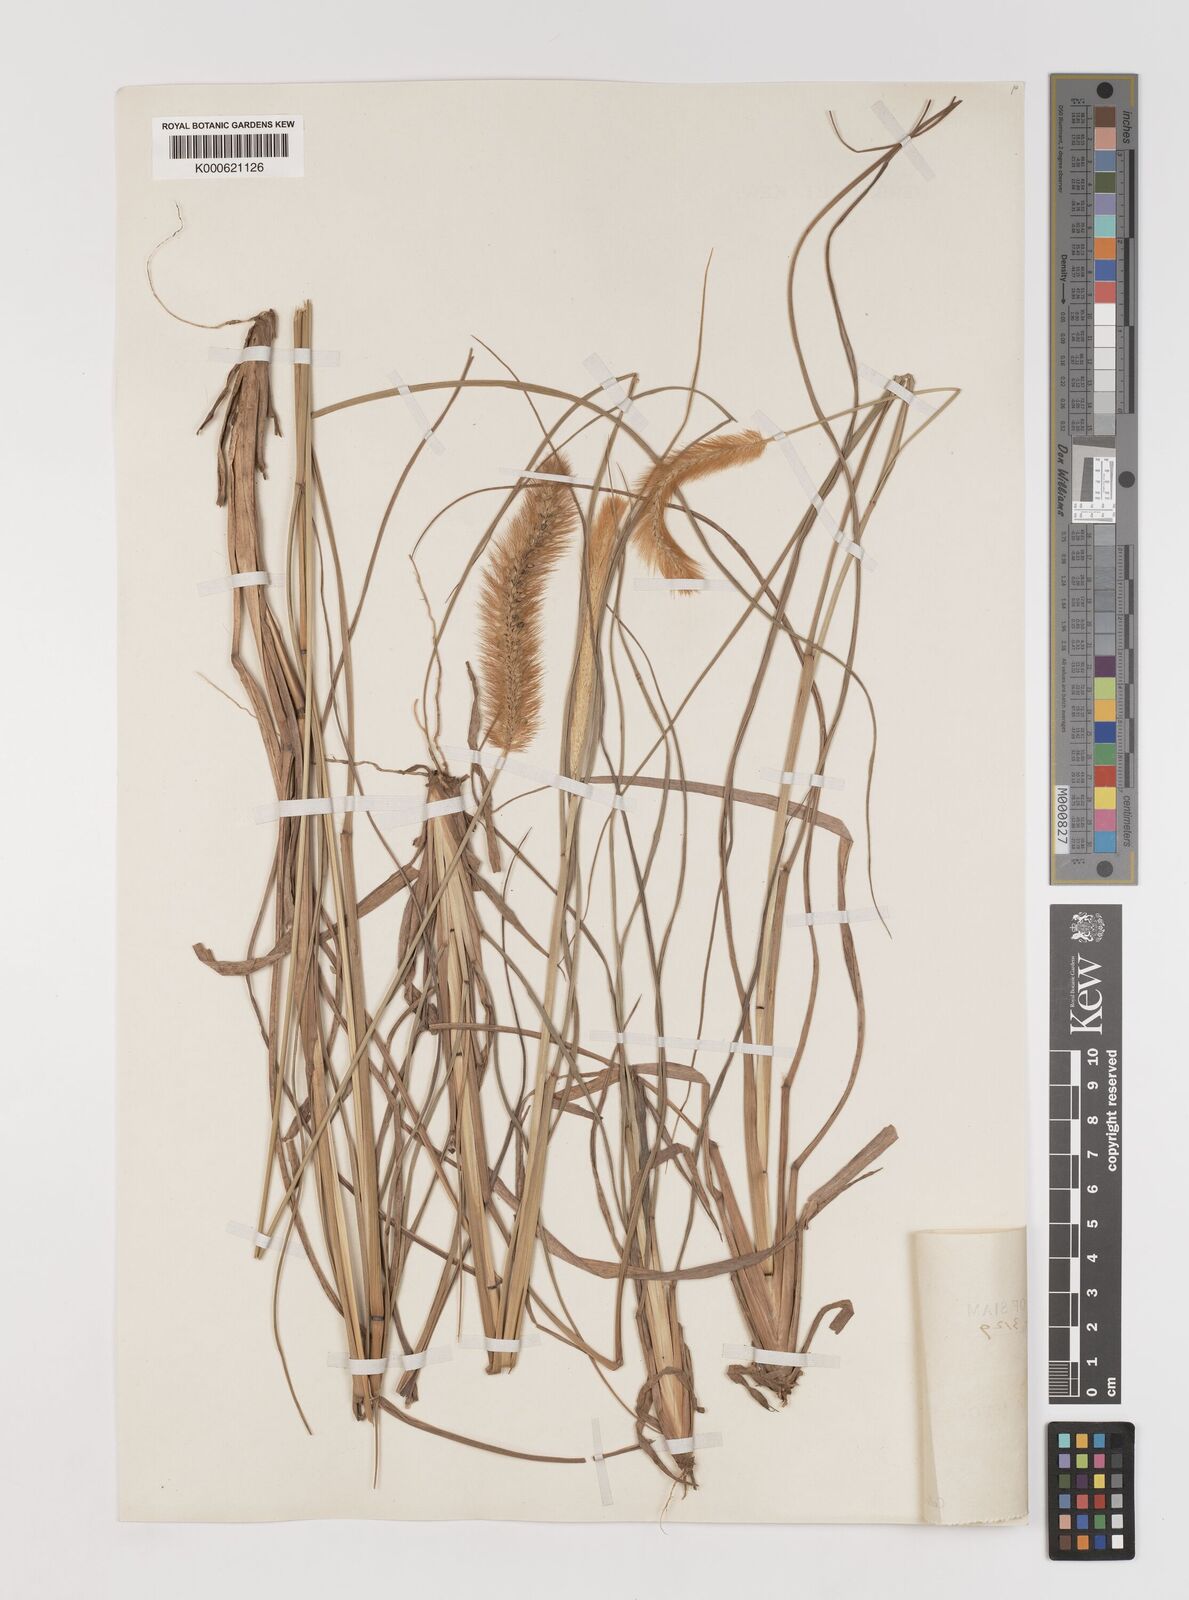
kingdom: Plantae
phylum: Tracheophyta
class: Liliopsida
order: Poales
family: Poaceae
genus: Setaria
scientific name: Setaria italica
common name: Foxtail bristle-grass
